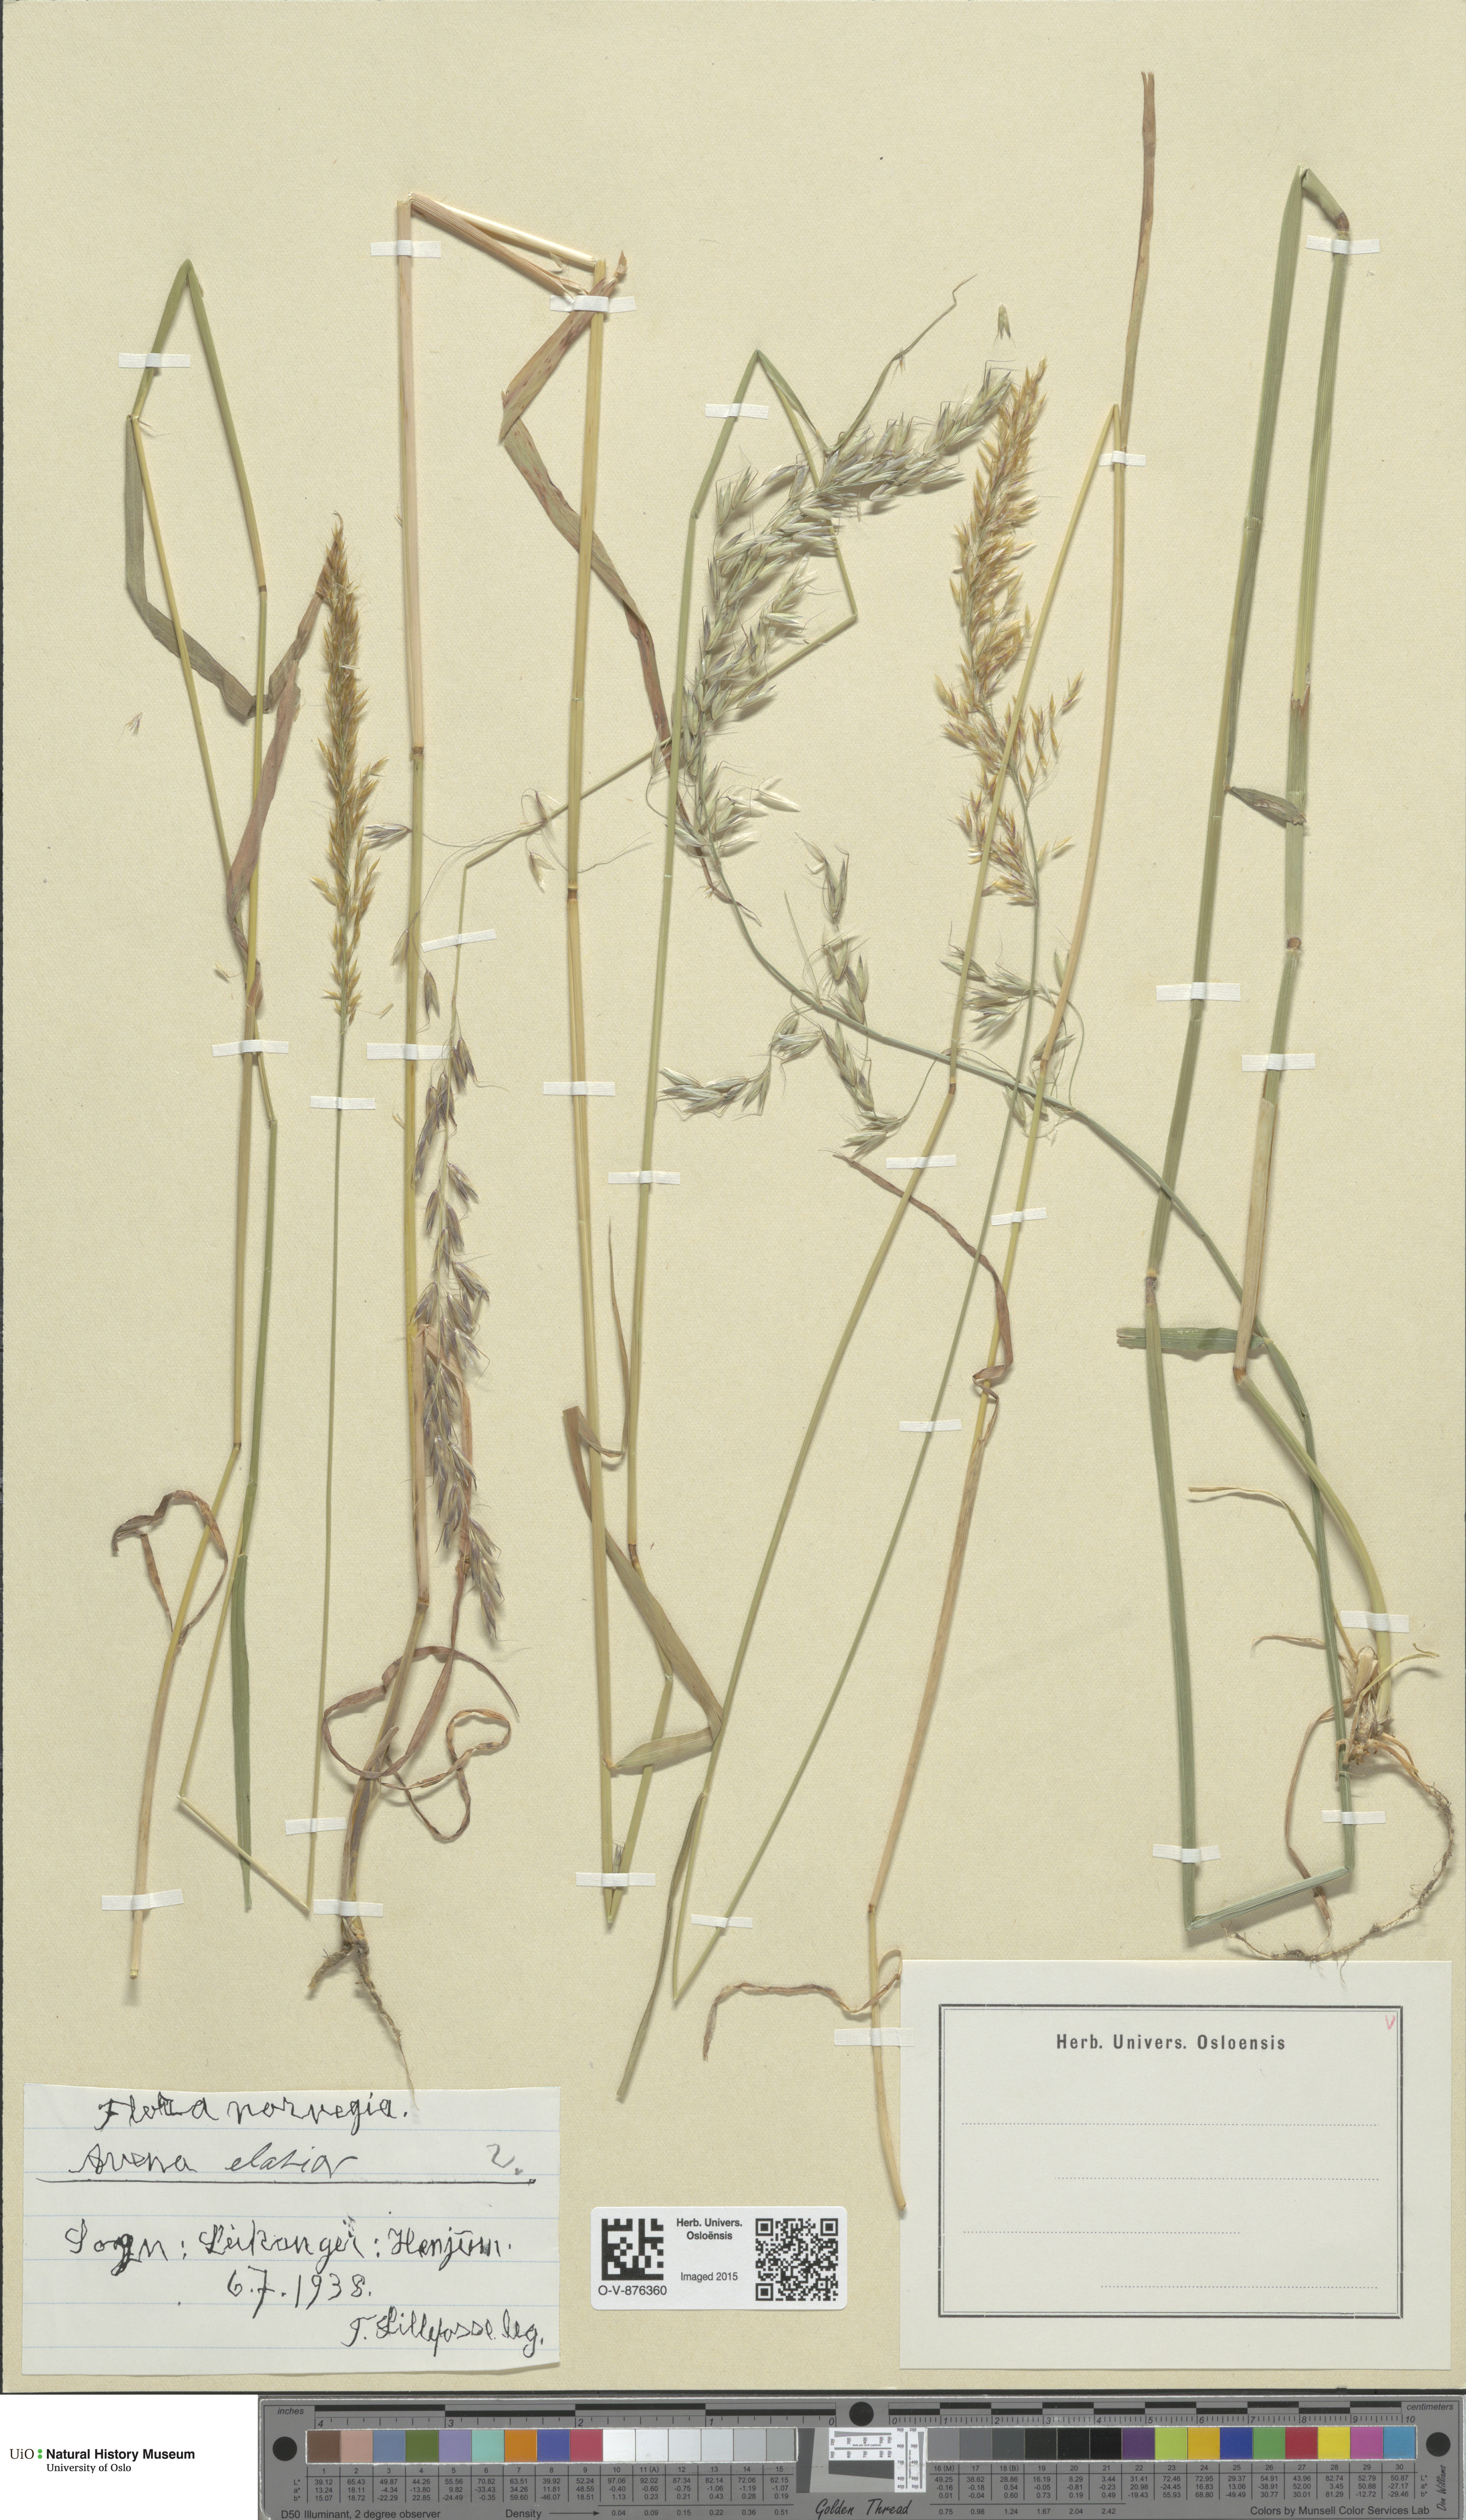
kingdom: Plantae
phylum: Tracheophyta
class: Liliopsida
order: Poales
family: Poaceae
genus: Arrhenatherum
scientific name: Arrhenatherum elatius
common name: Tall oatgrass
